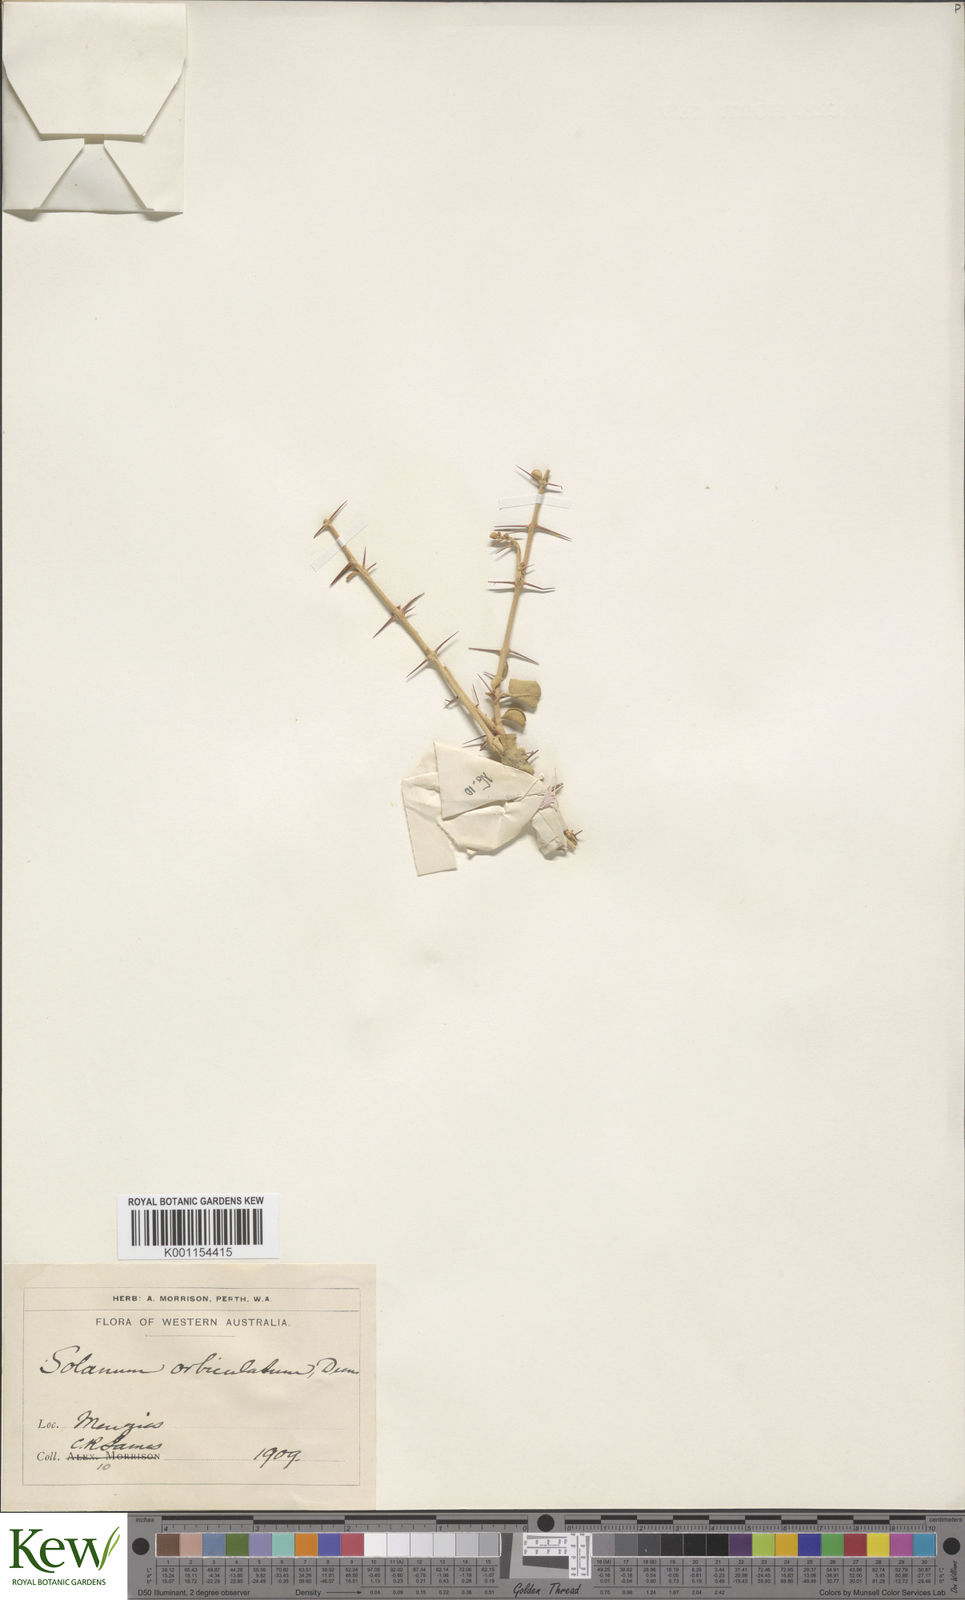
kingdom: Plantae
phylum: Tracheophyta
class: Magnoliopsida
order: Solanales
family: Solanaceae
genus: Solanum
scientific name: Solanum nummularium
